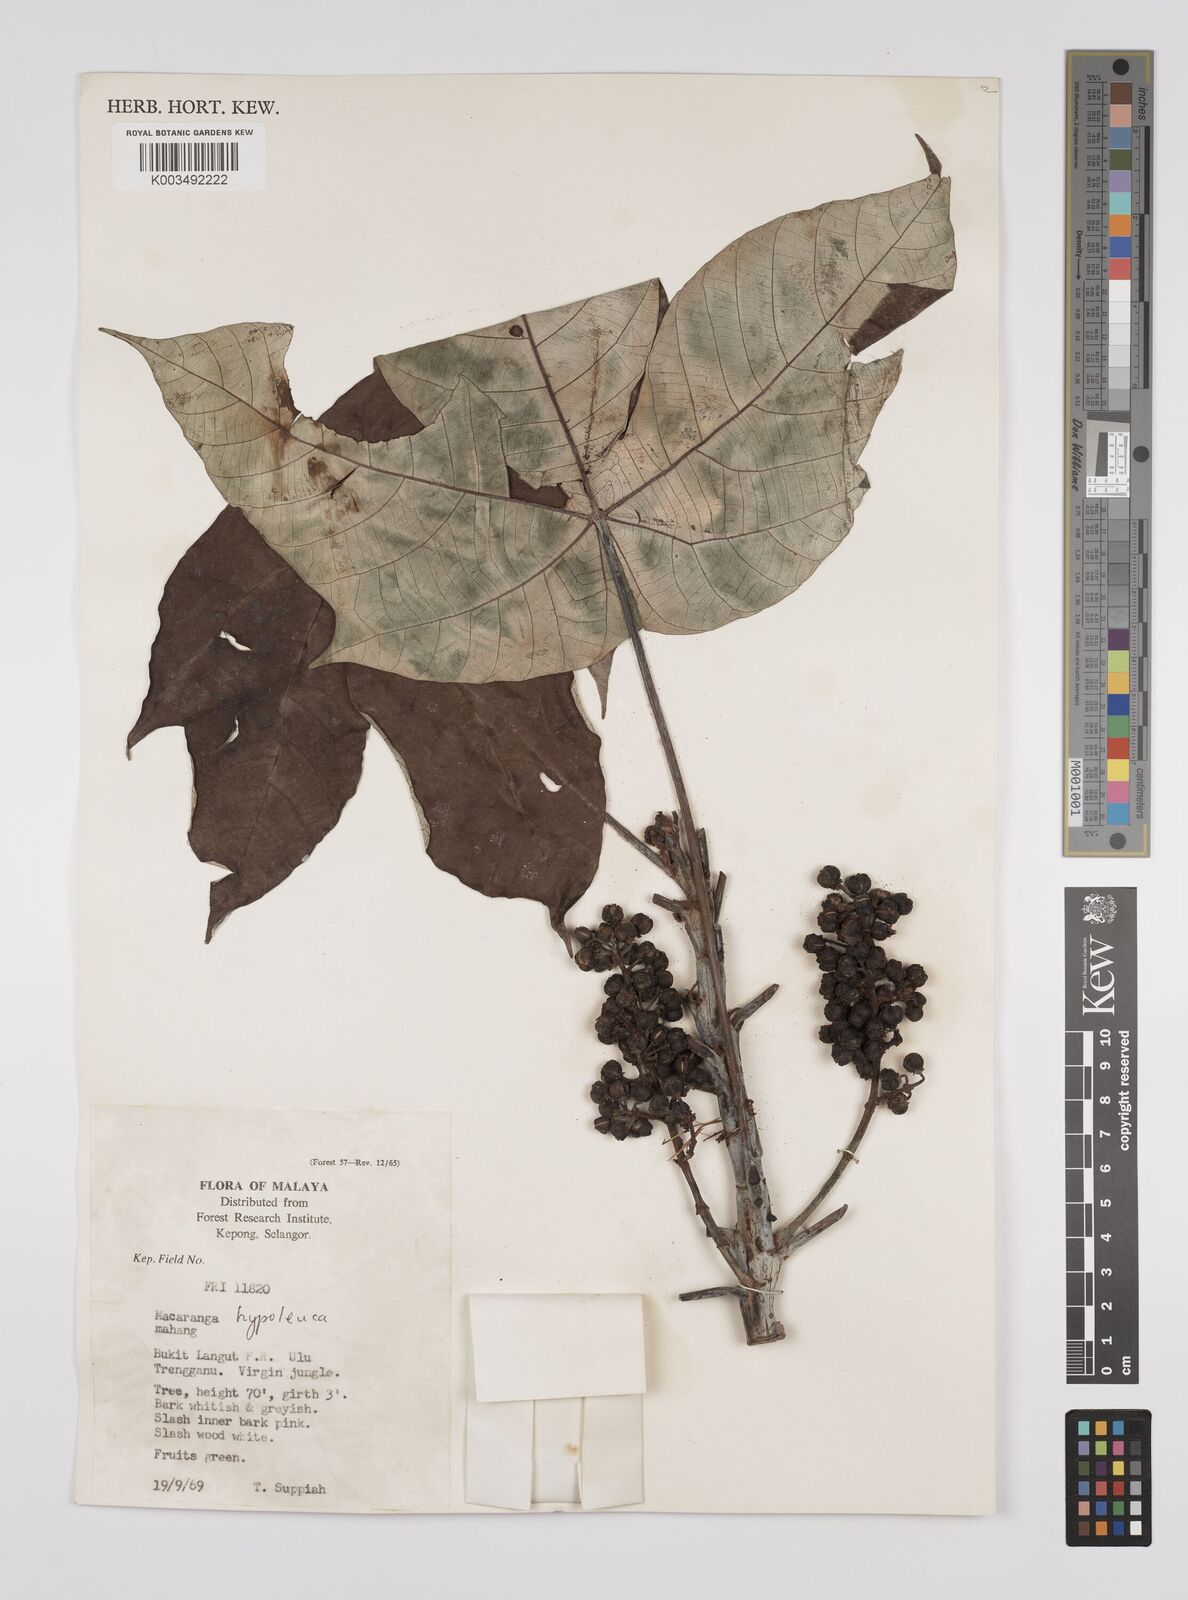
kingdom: Plantae
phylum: Tracheophyta
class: Magnoliopsida
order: Malpighiales
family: Euphorbiaceae
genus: Macaranga
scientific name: Macaranga hypoleuca
